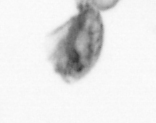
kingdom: Animalia
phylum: Arthropoda
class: Copepoda
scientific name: Copepoda
